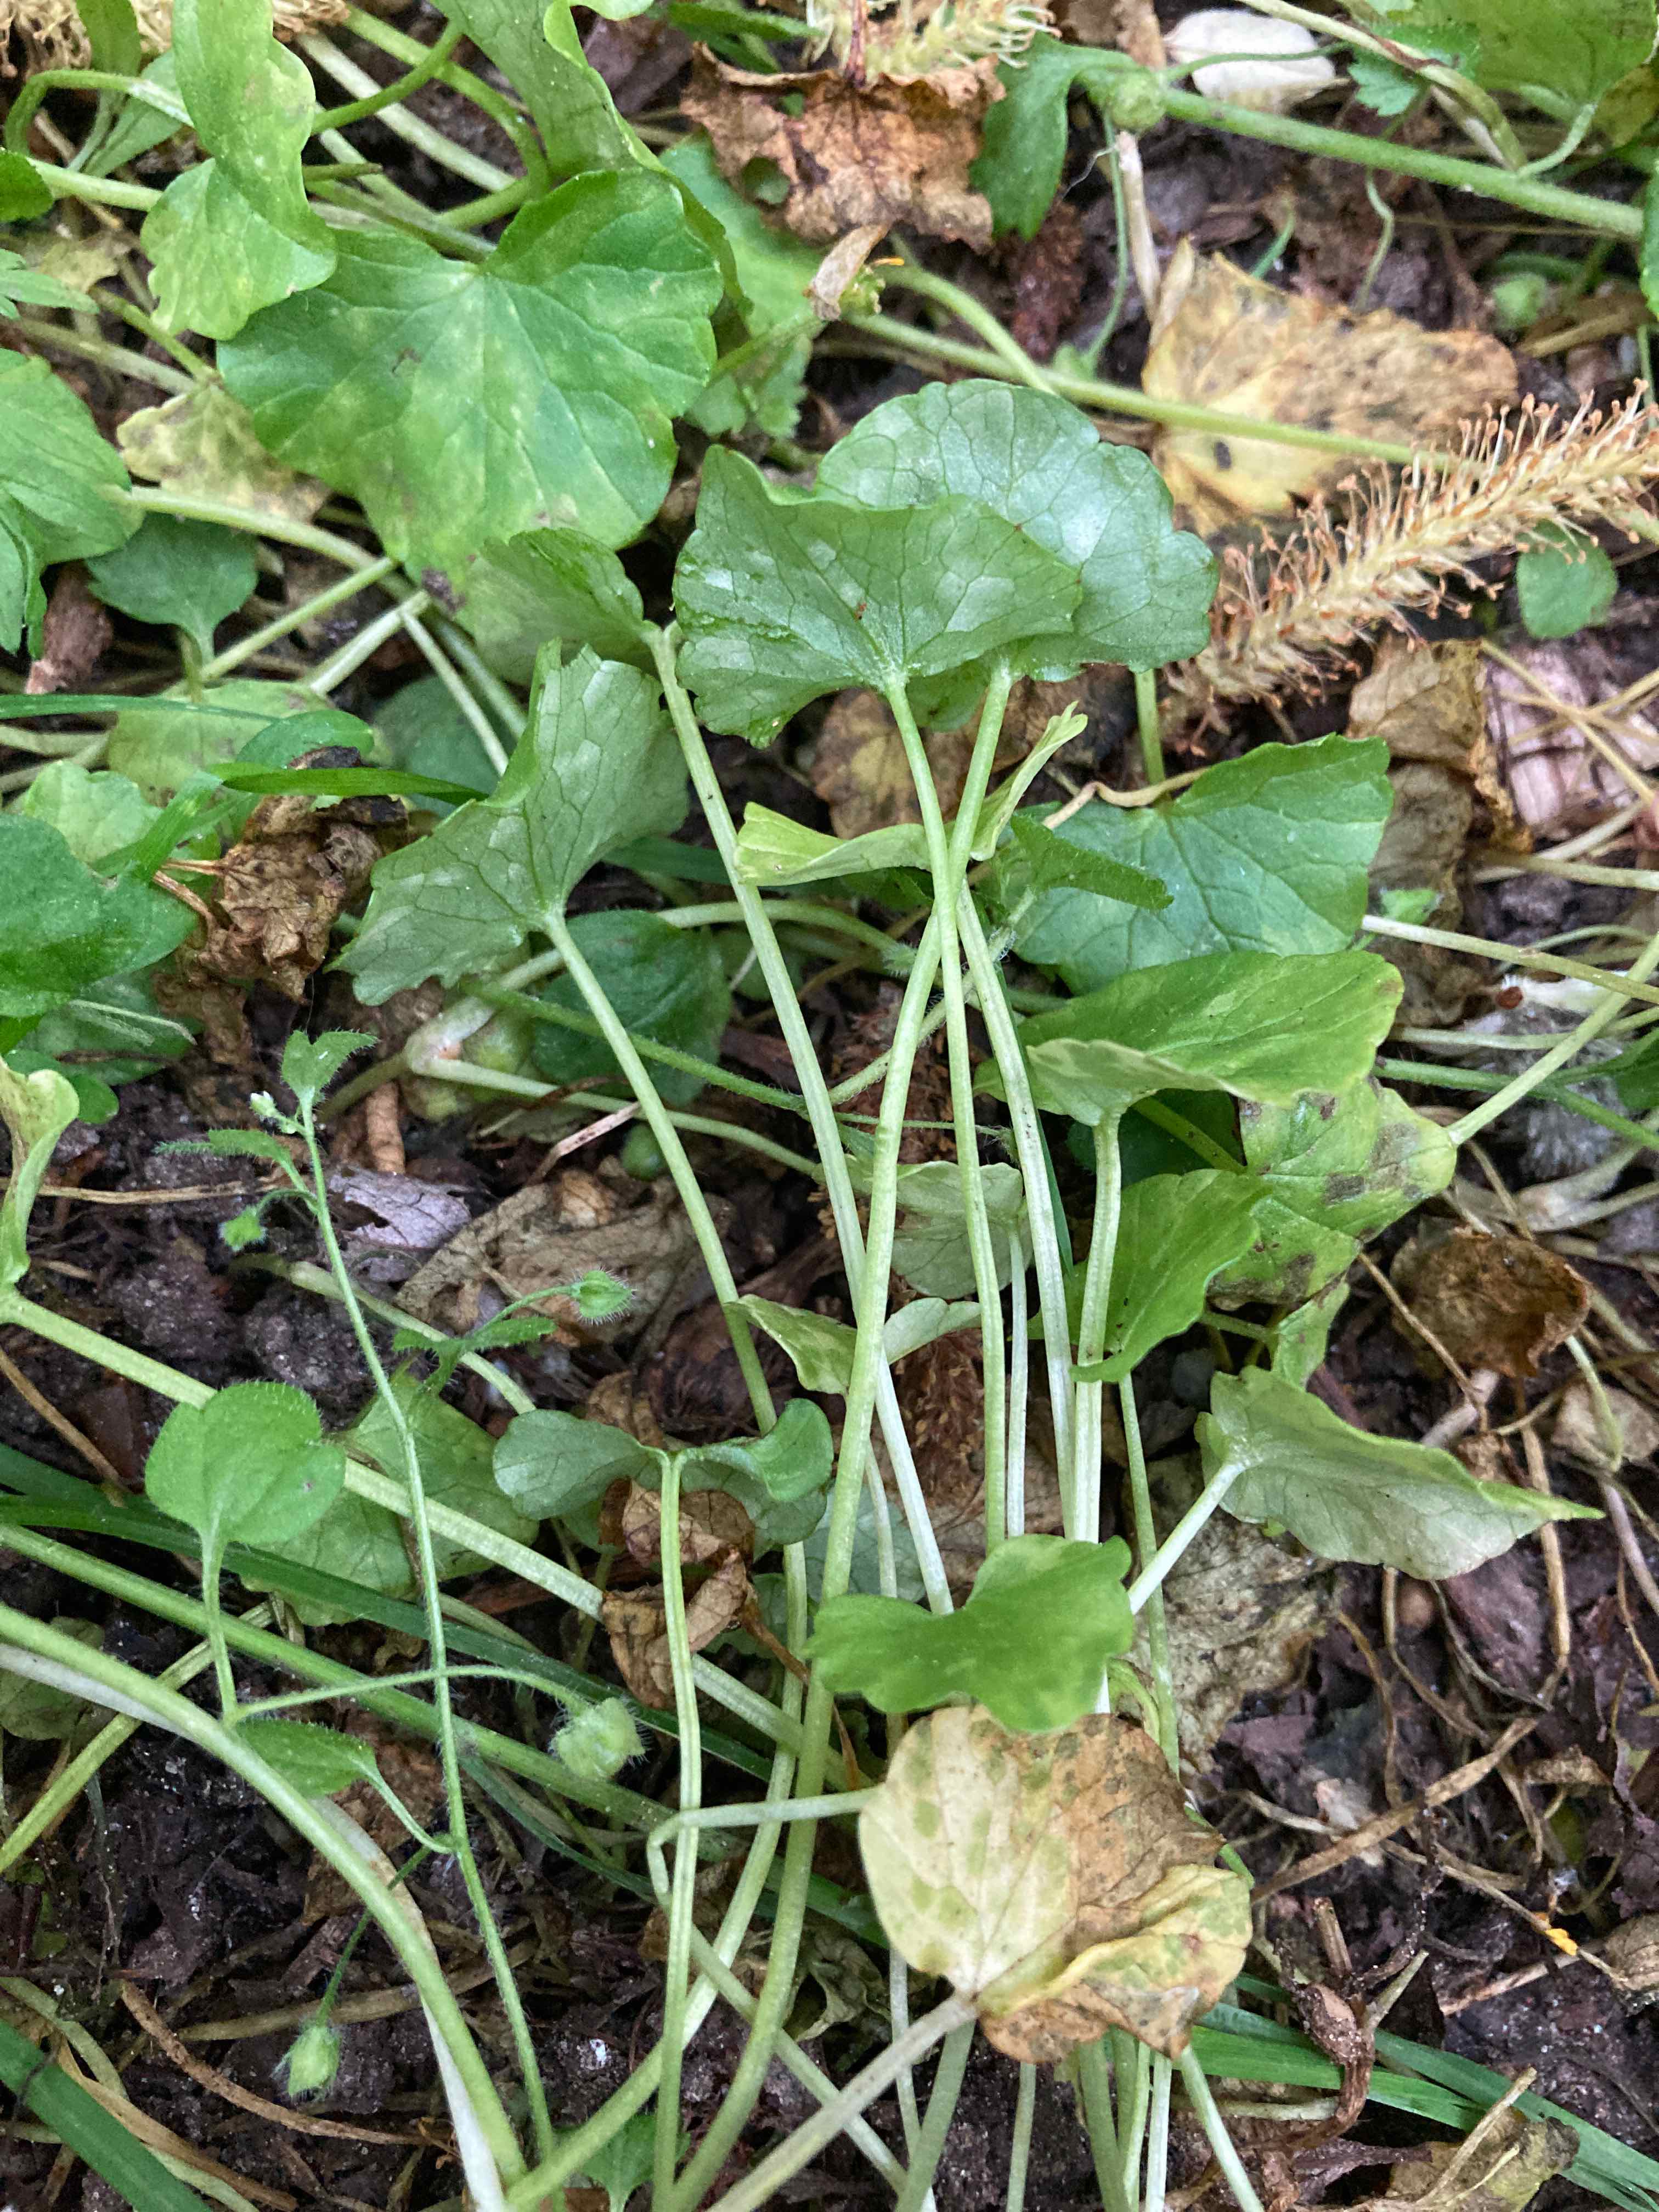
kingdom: Fungi
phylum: Basidiomycota
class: Exobasidiomycetes
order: Entylomatales
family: Entylomataceae
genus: Entyloma
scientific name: Entyloma ficariae
